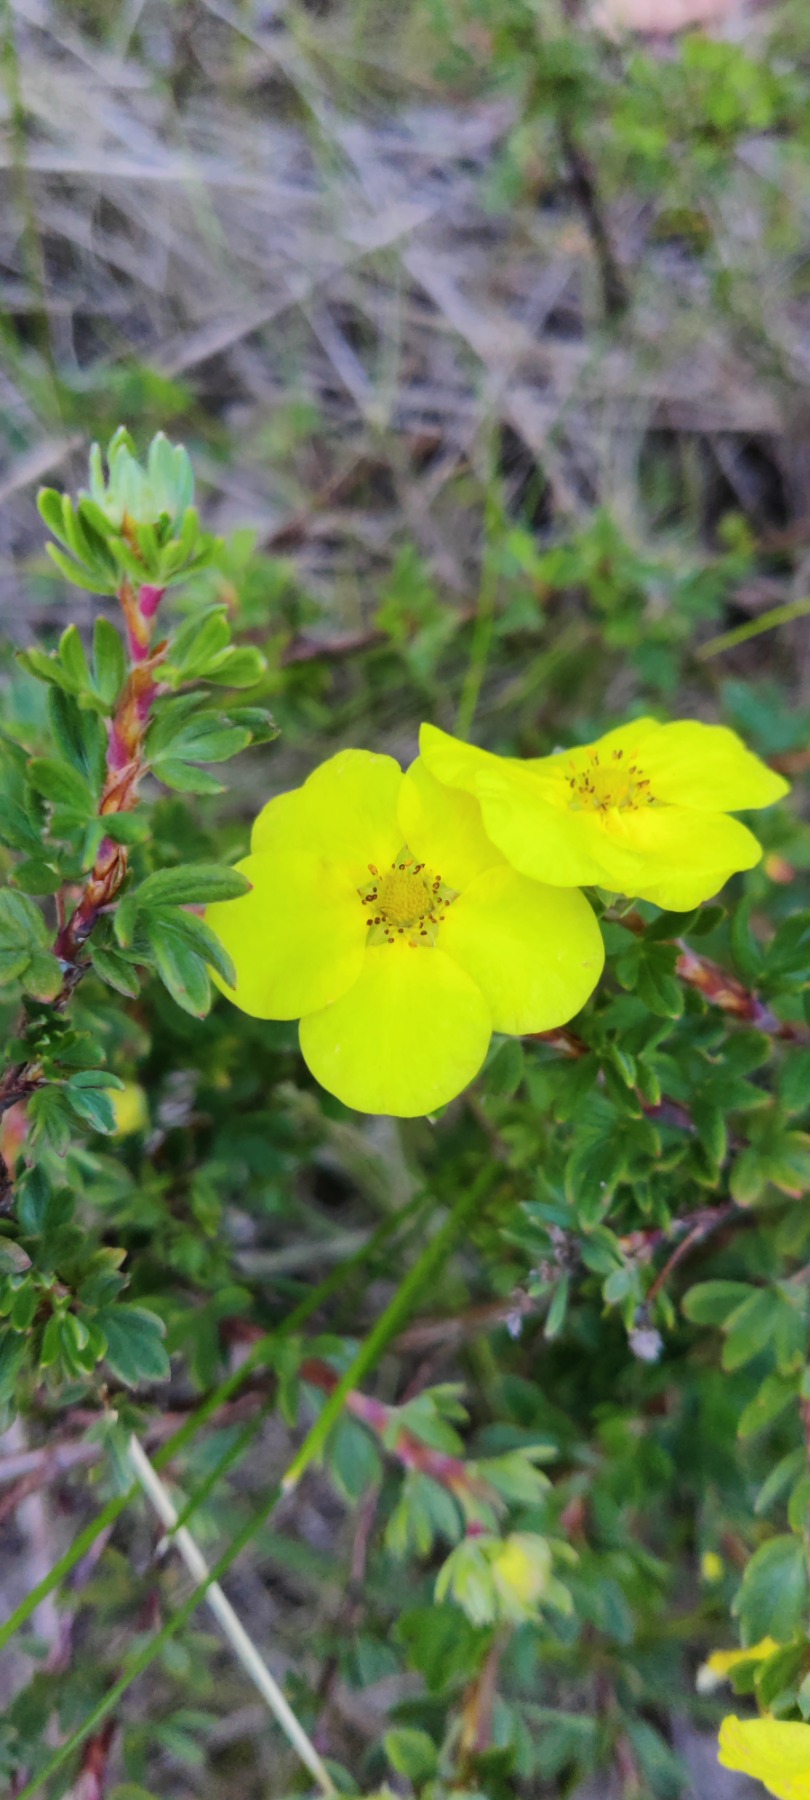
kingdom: Plantae
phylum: Tracheophyta
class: Magnoliopsida
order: Rosales
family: Rosaceae
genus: Dasiphora
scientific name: Dasiphora fruticosa
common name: Buskpotentil
